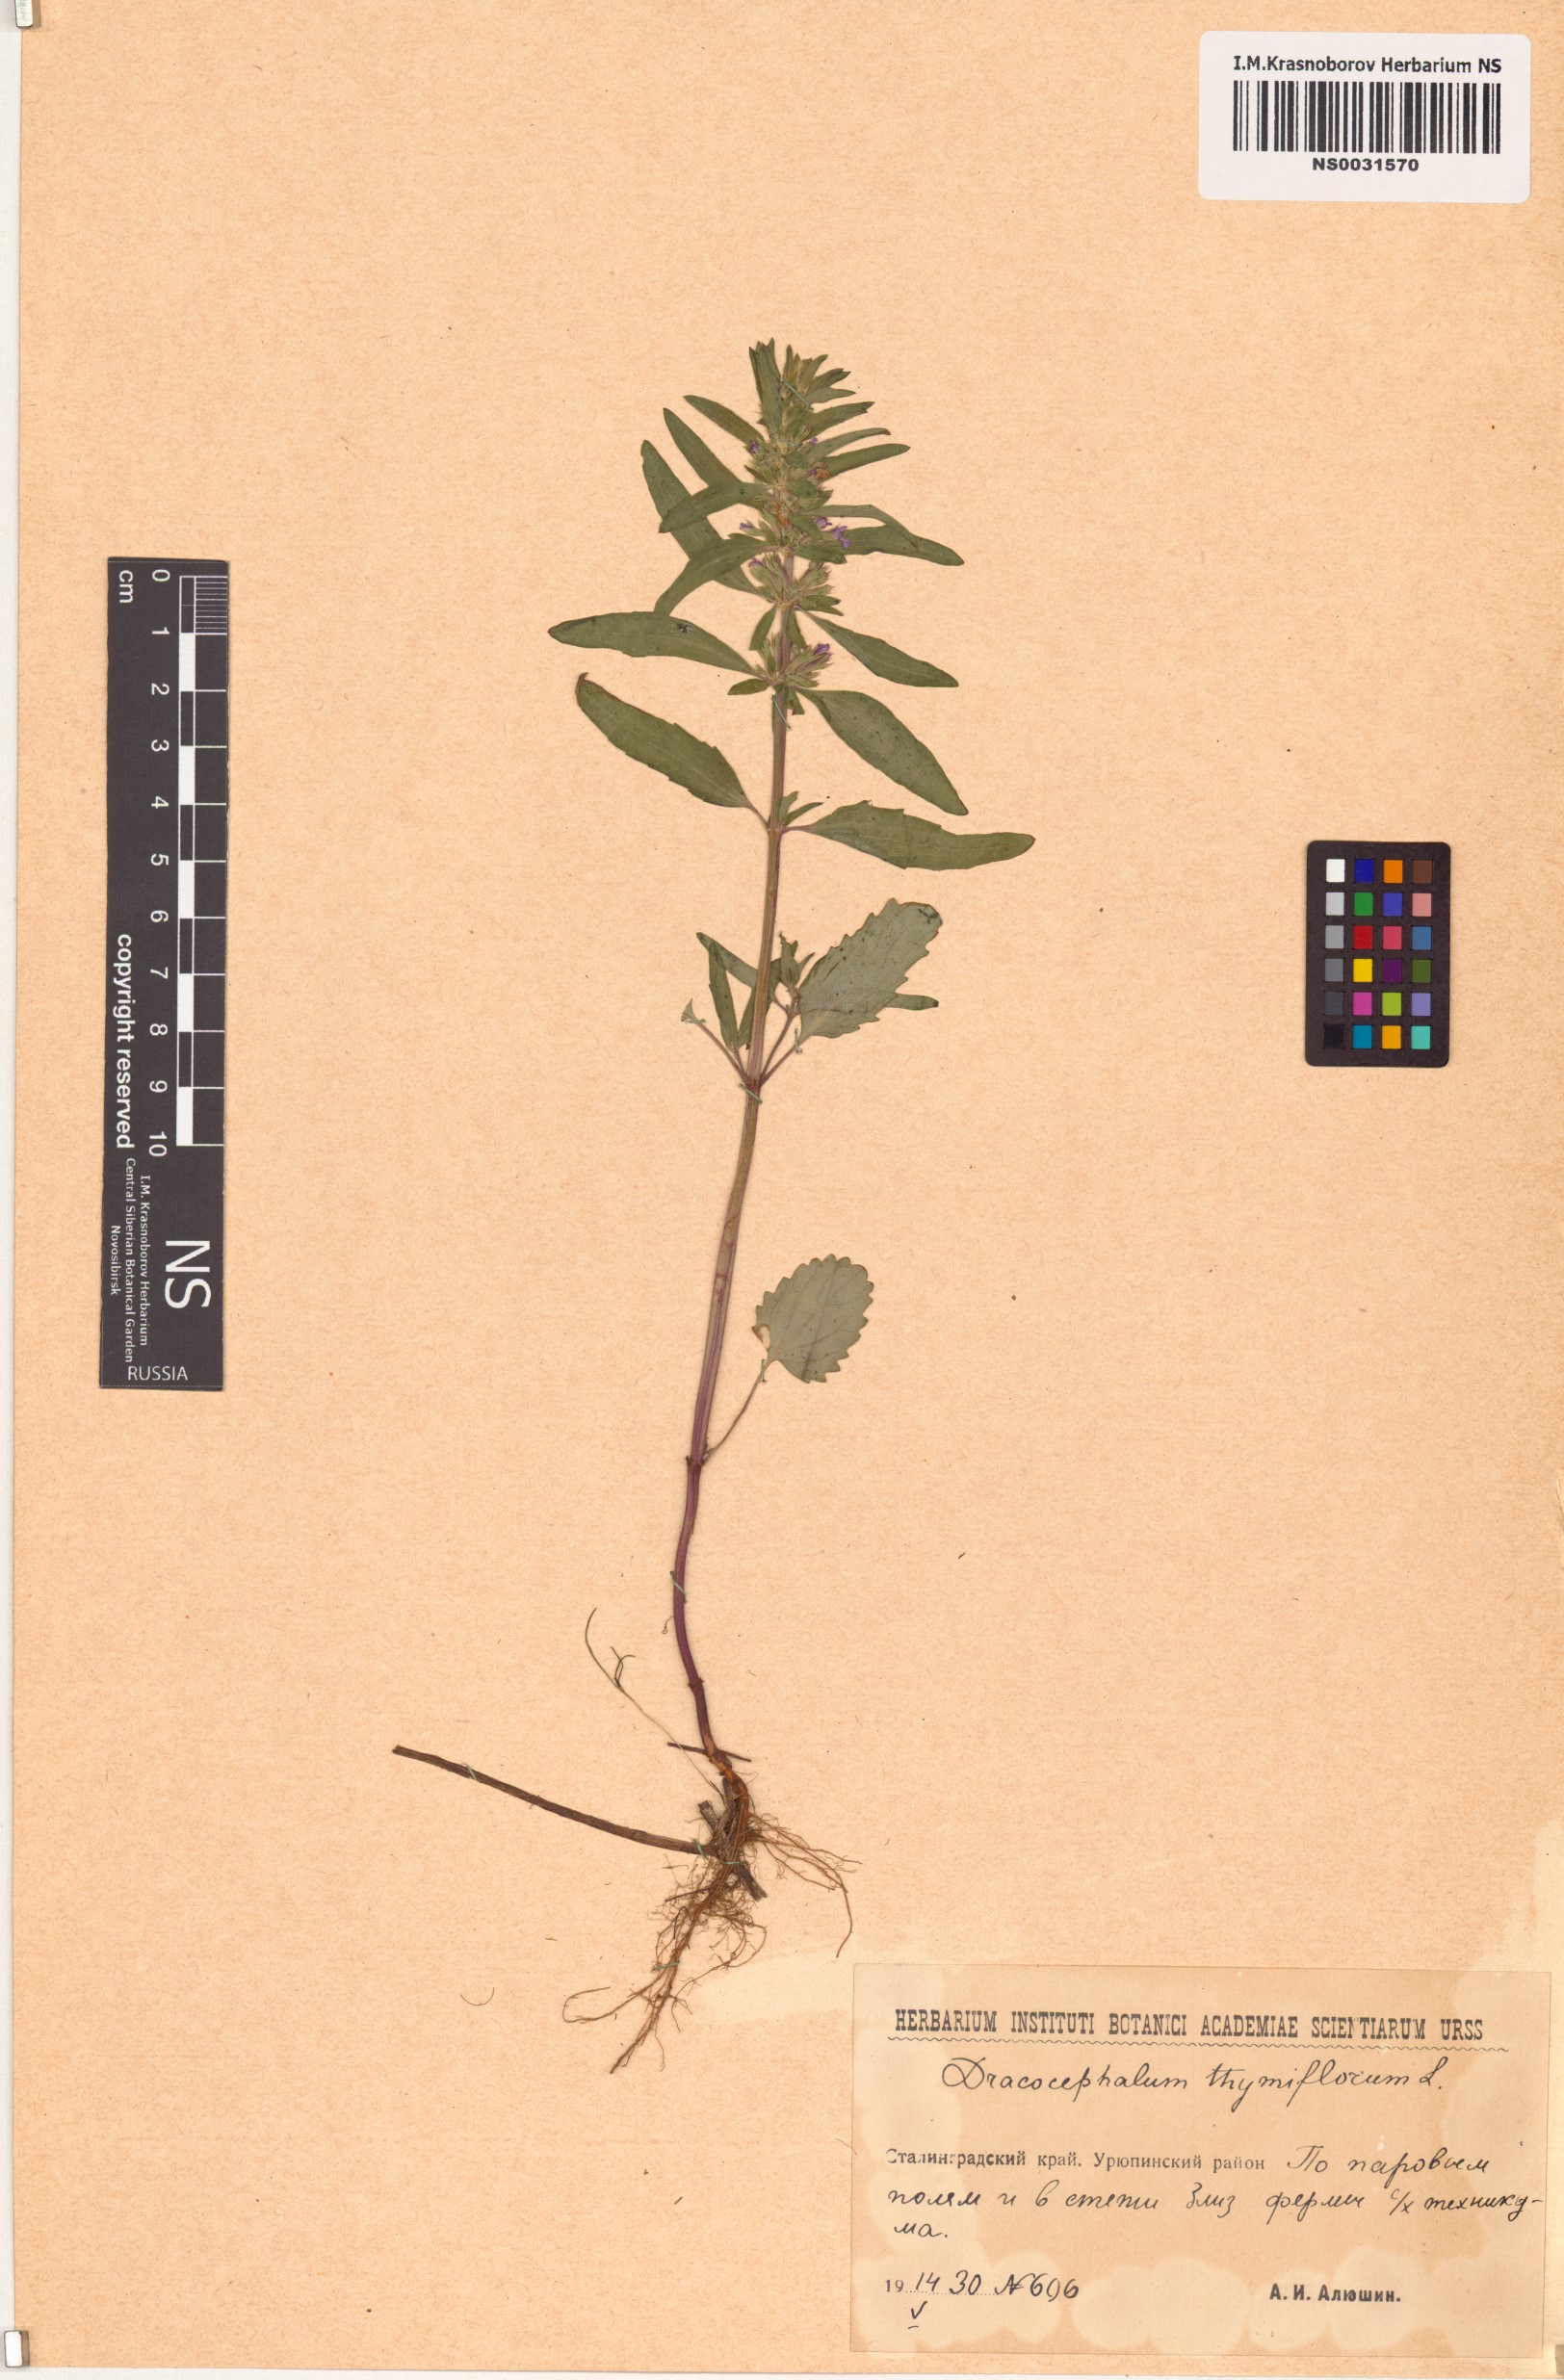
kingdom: Plantae
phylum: Tracheophyta
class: Magnoliopsida
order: Lamiales
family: Lamiaceae
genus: Dracocephalum
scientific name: Dracocephalum thymiflorum
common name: Thymeleaf dragonhead
